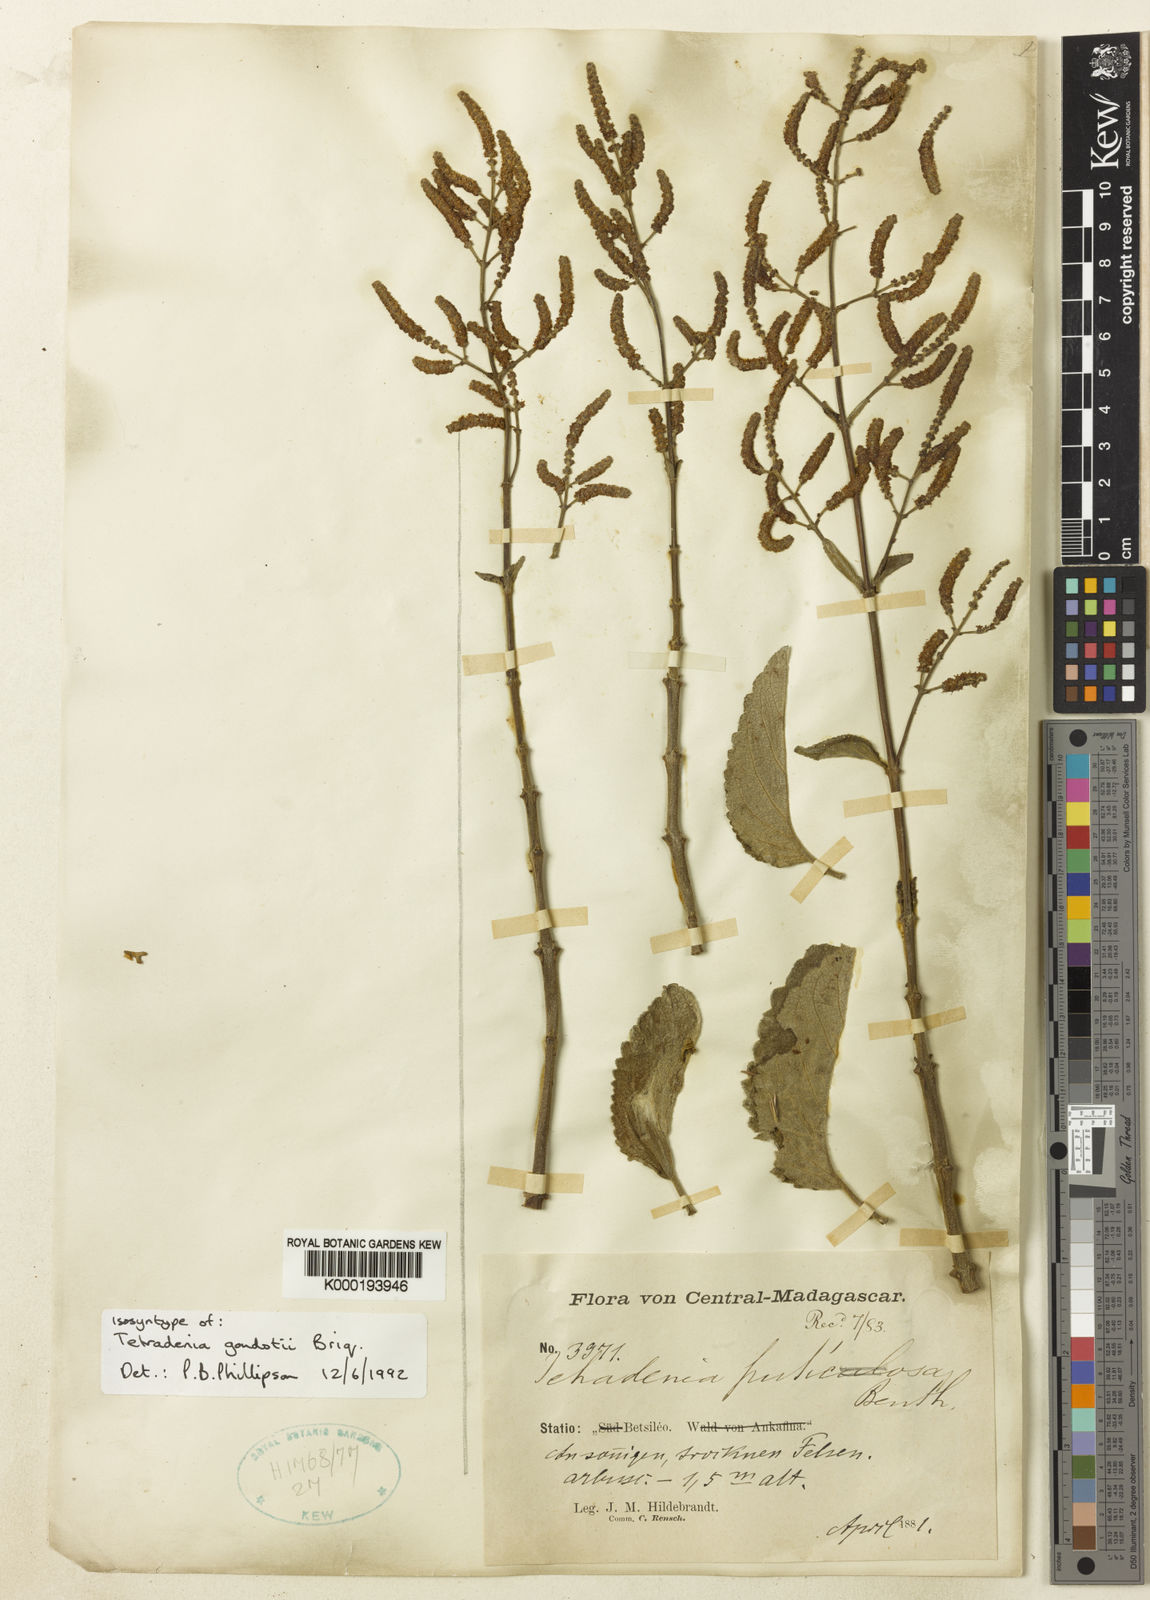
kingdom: Plantae
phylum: Tracheophyta
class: Magnoliopsida
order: Lamiales
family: Lamiaceae
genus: Tetradenia
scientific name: Tetradenia goudotii
